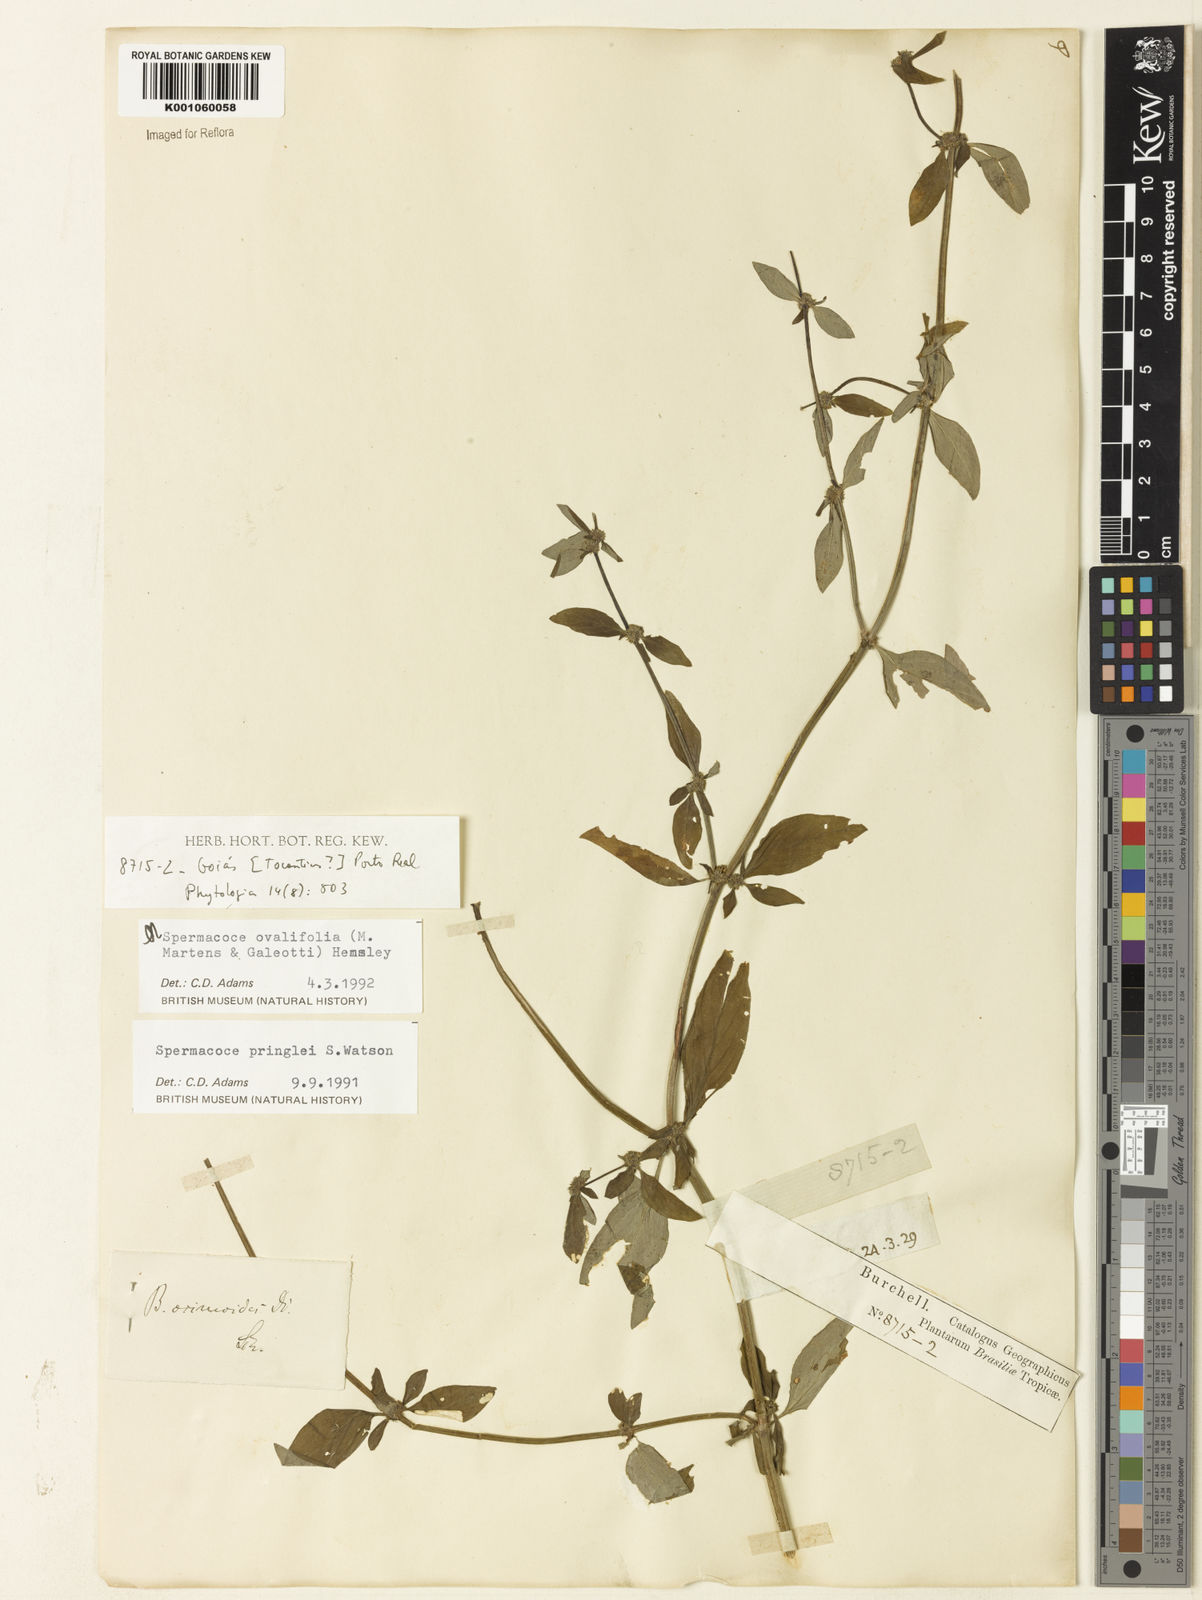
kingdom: Plantae
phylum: Tracheophyta
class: Magnoliopsida
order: Gentianales
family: Rubiaceae
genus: Spermacoce
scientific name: Spermacoce ovalifolia
